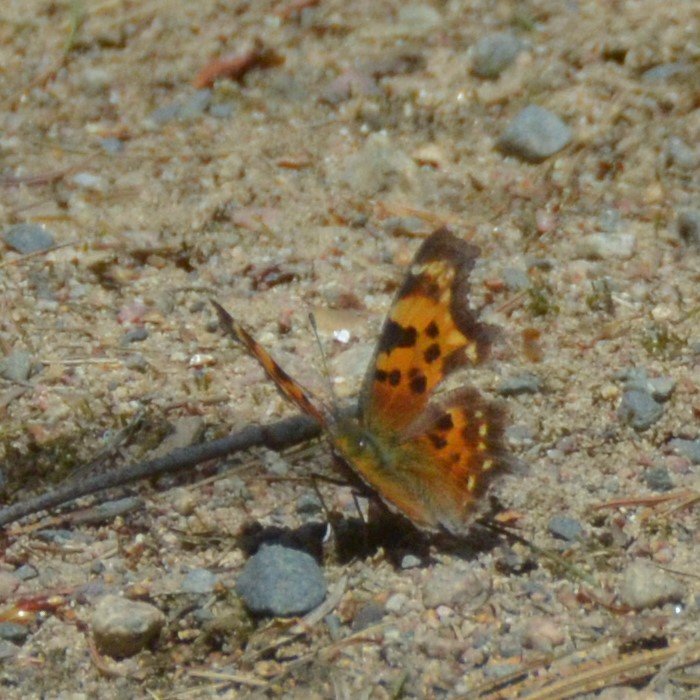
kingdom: Animalia
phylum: Arthropoda
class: Insecta
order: Lepidoptera
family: Nymphalidae
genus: Polygonia
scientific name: Polygonia faunus
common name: Green Comma
